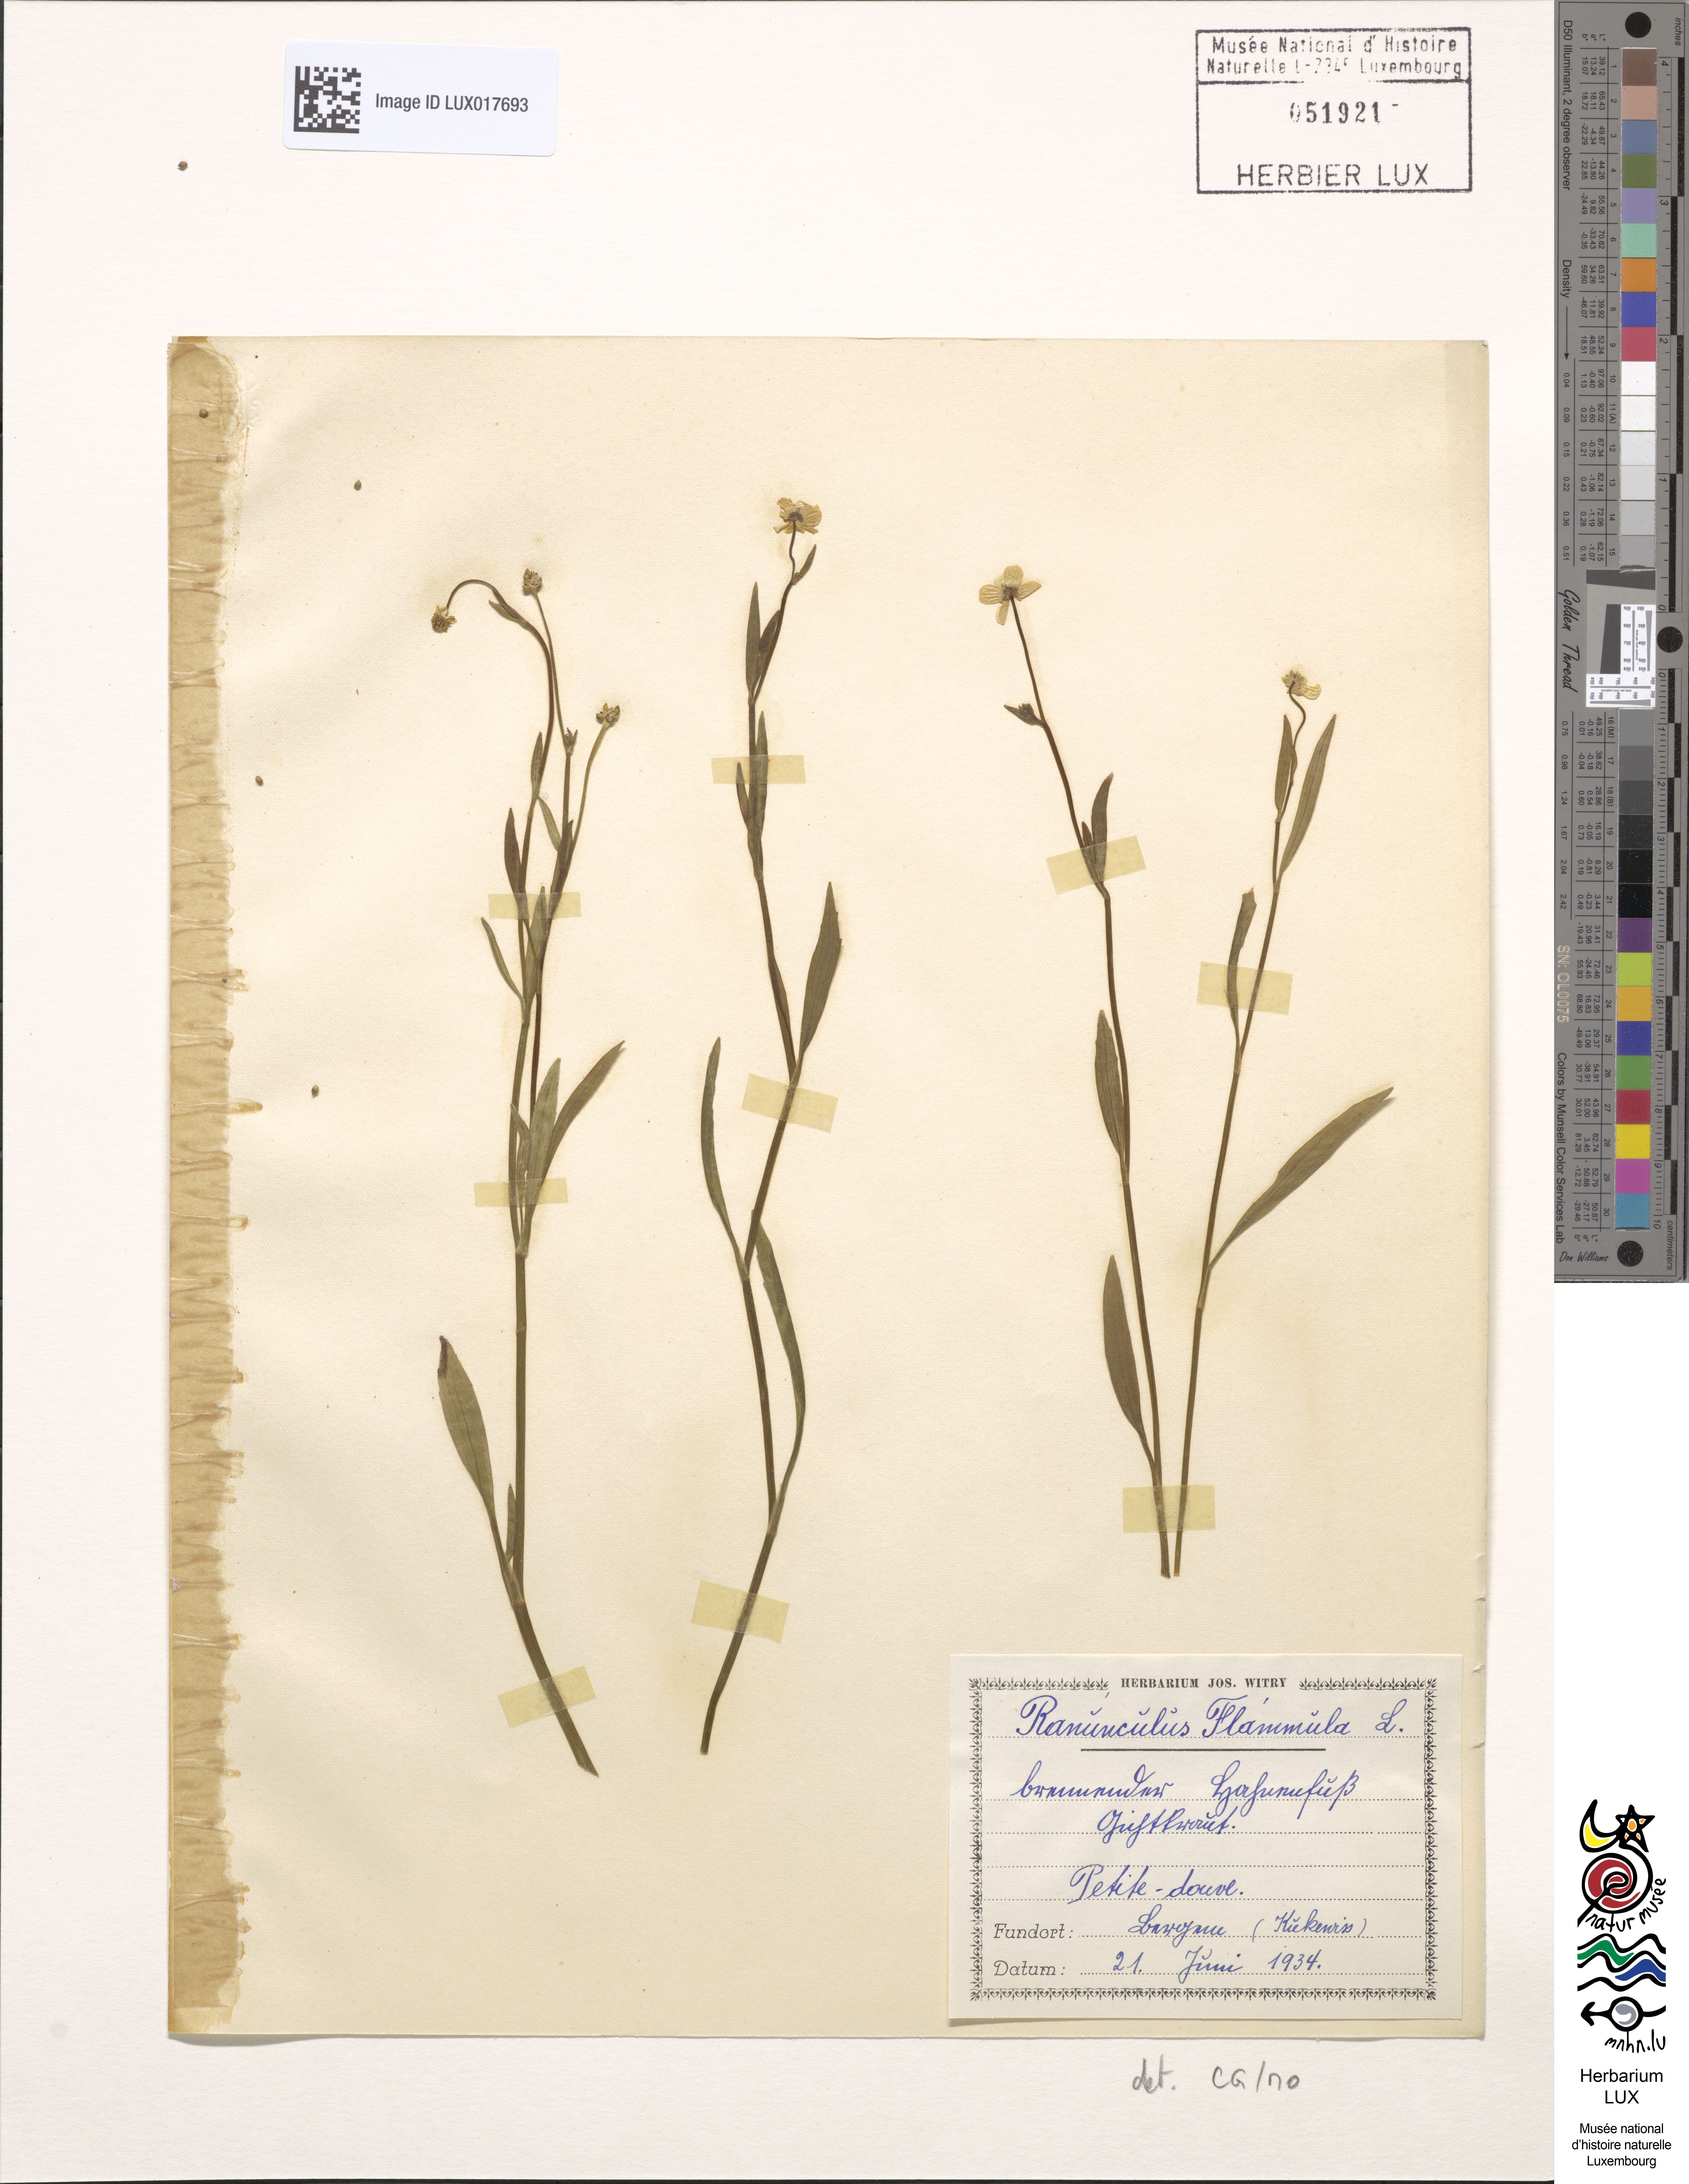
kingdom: Plantae
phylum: Tracheophyta
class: Magnoliopsida
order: Ranunculales
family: Ranunculaceae
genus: Ranunculus
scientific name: Ranunculus flammula
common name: Lesser spearwort
